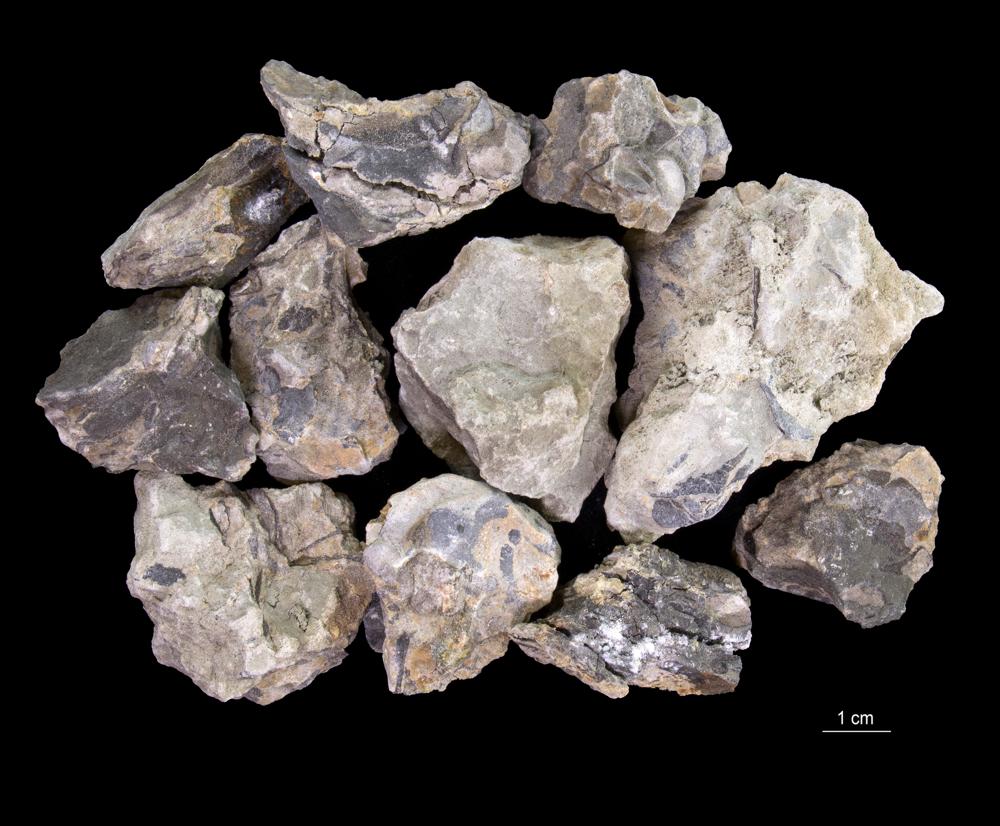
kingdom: Animalia
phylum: Brachiopoda
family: Paterinidae
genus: Mickwitzia
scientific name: Mickwitzia
